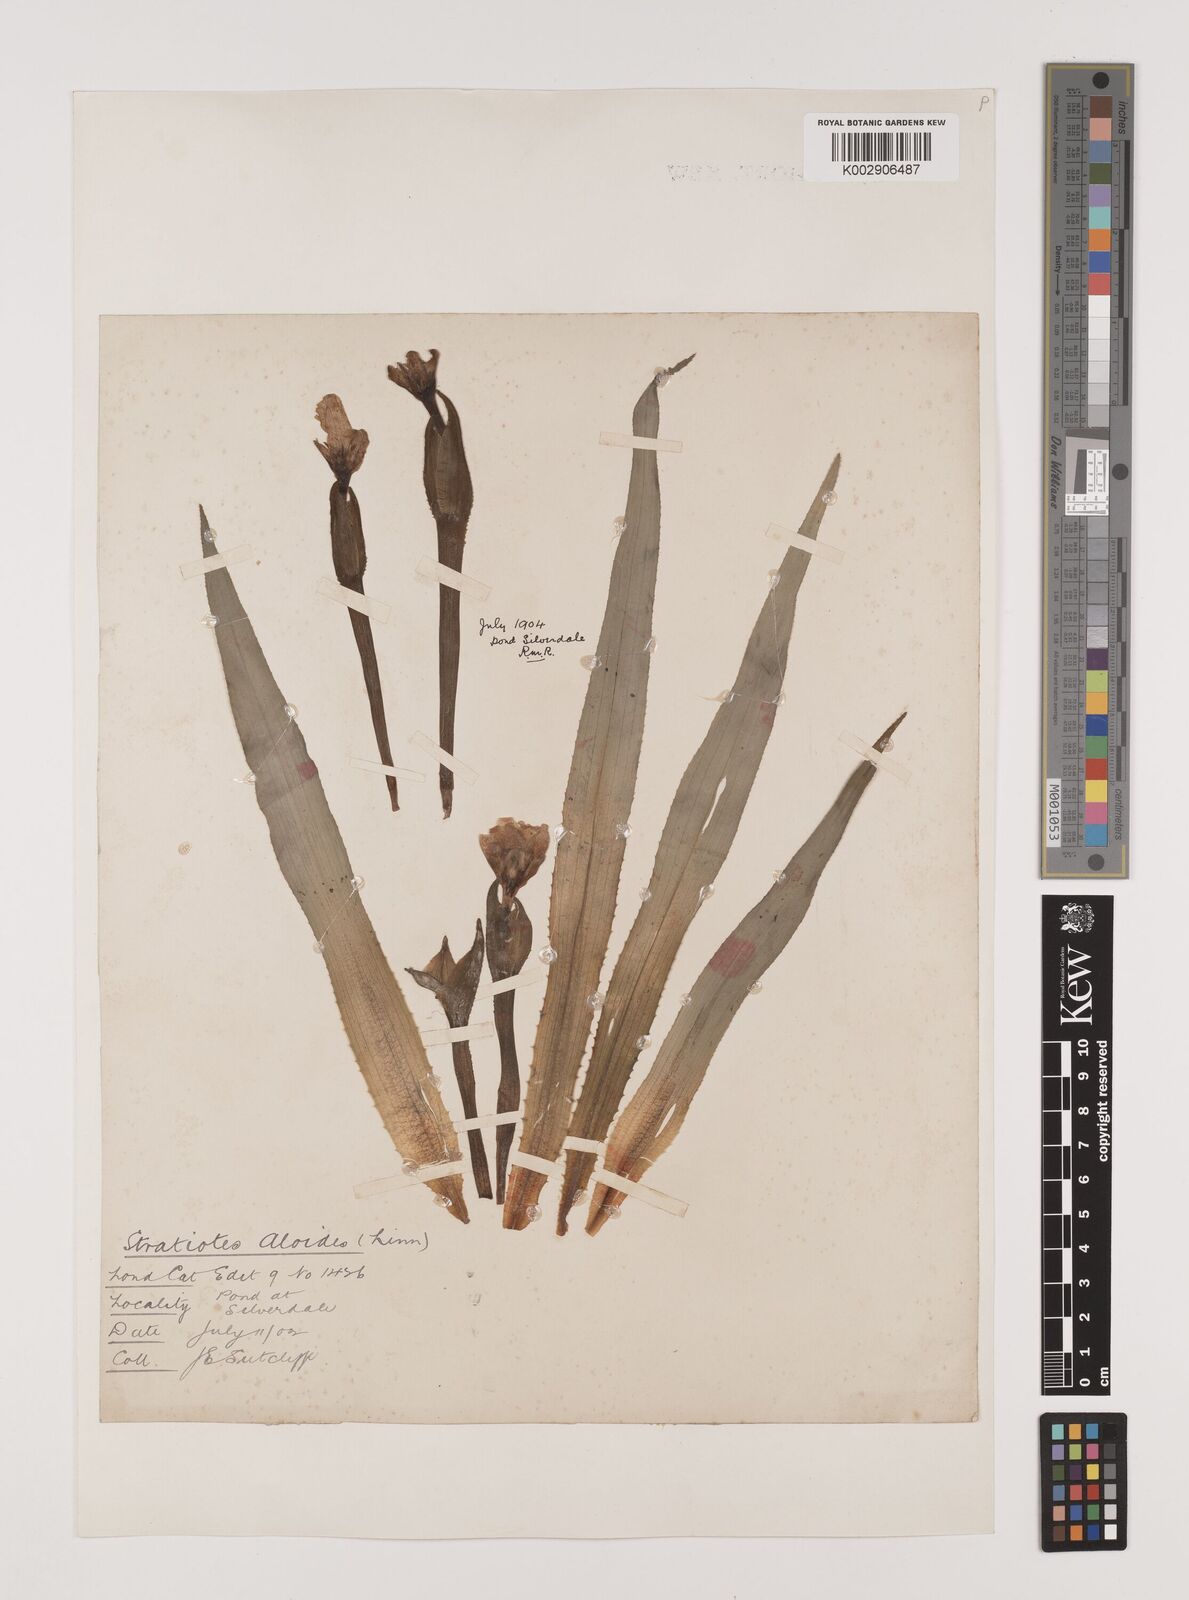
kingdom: Plantae
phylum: Tracheophyta
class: Liliopsida
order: Alismatales
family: Hydrocharitaceae
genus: Stratiotes
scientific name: Stratiotes aloides
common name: Water-soldier
